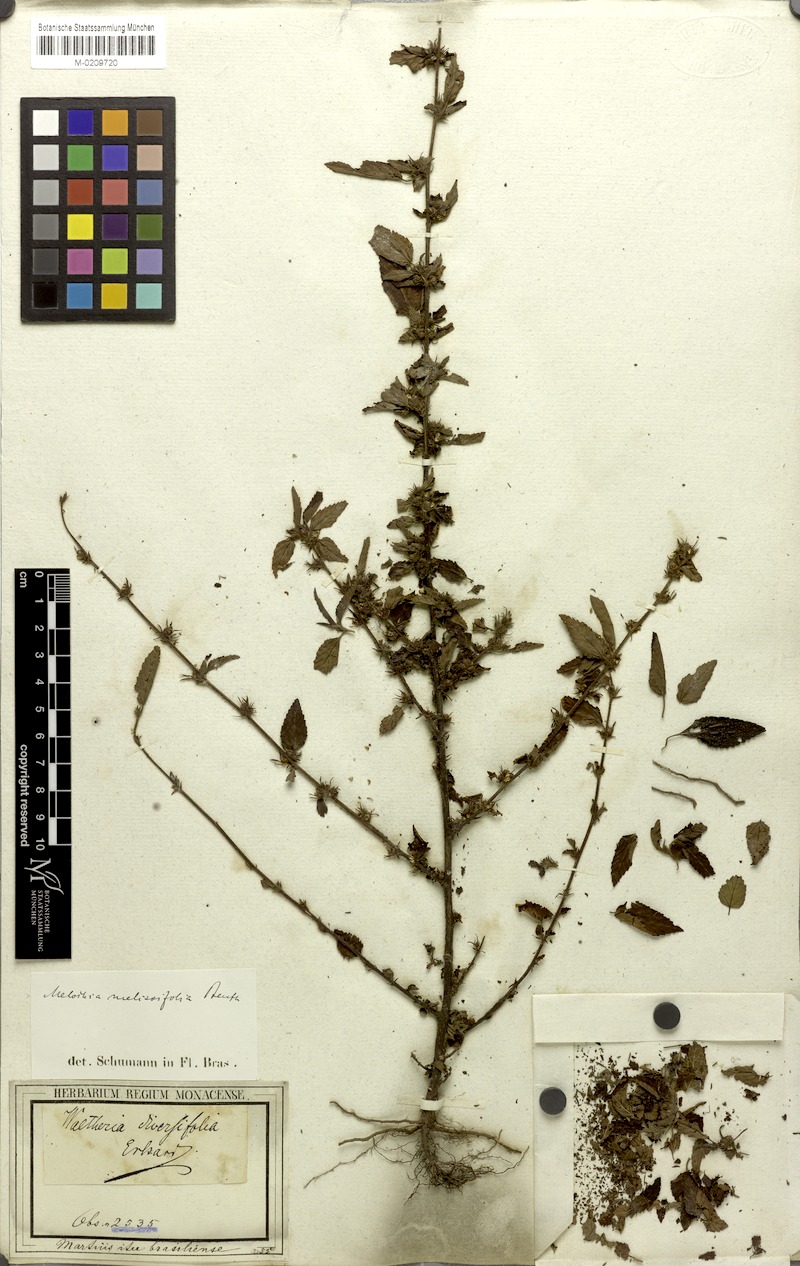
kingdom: Plantae
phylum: Tracheophyta
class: Magnoliopsida
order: Malvales
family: Malvaceae
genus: Melochia
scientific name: Melochia melissifolia
